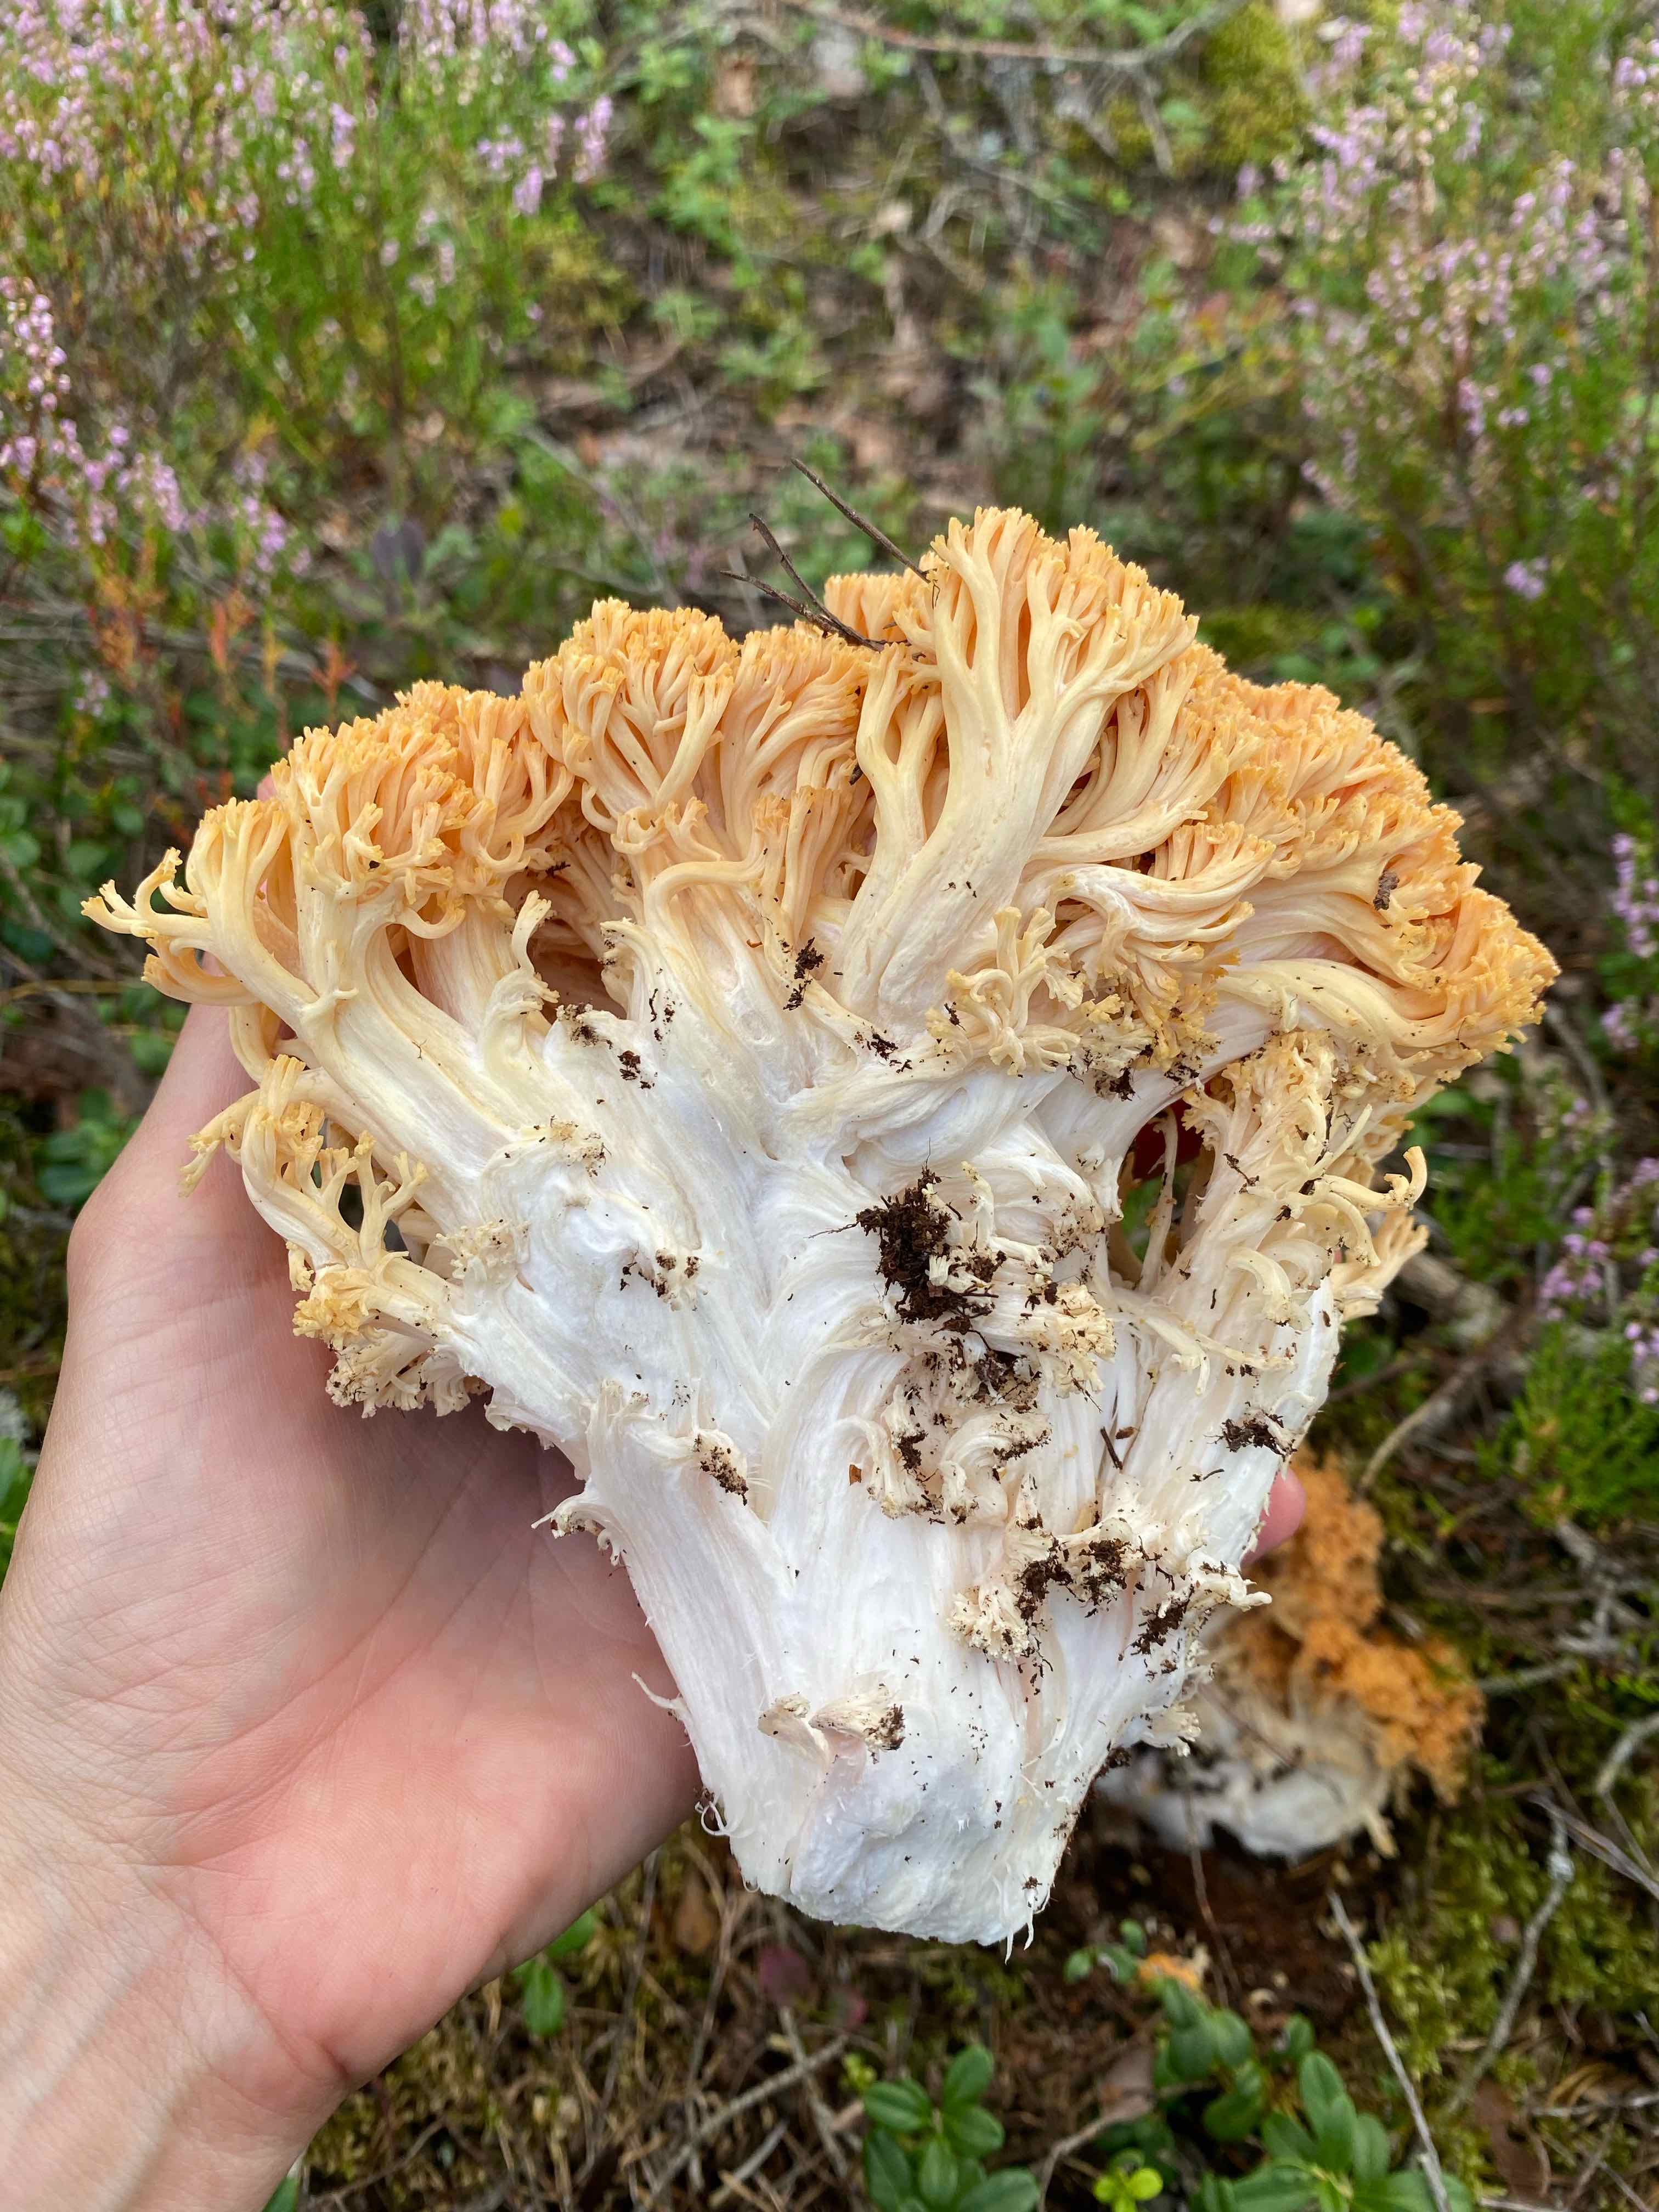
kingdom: Fungi
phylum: Basidiomycota
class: Agaricomycetes
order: Gomphales
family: Gomphaceae
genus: Ramaria
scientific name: Ramaria
